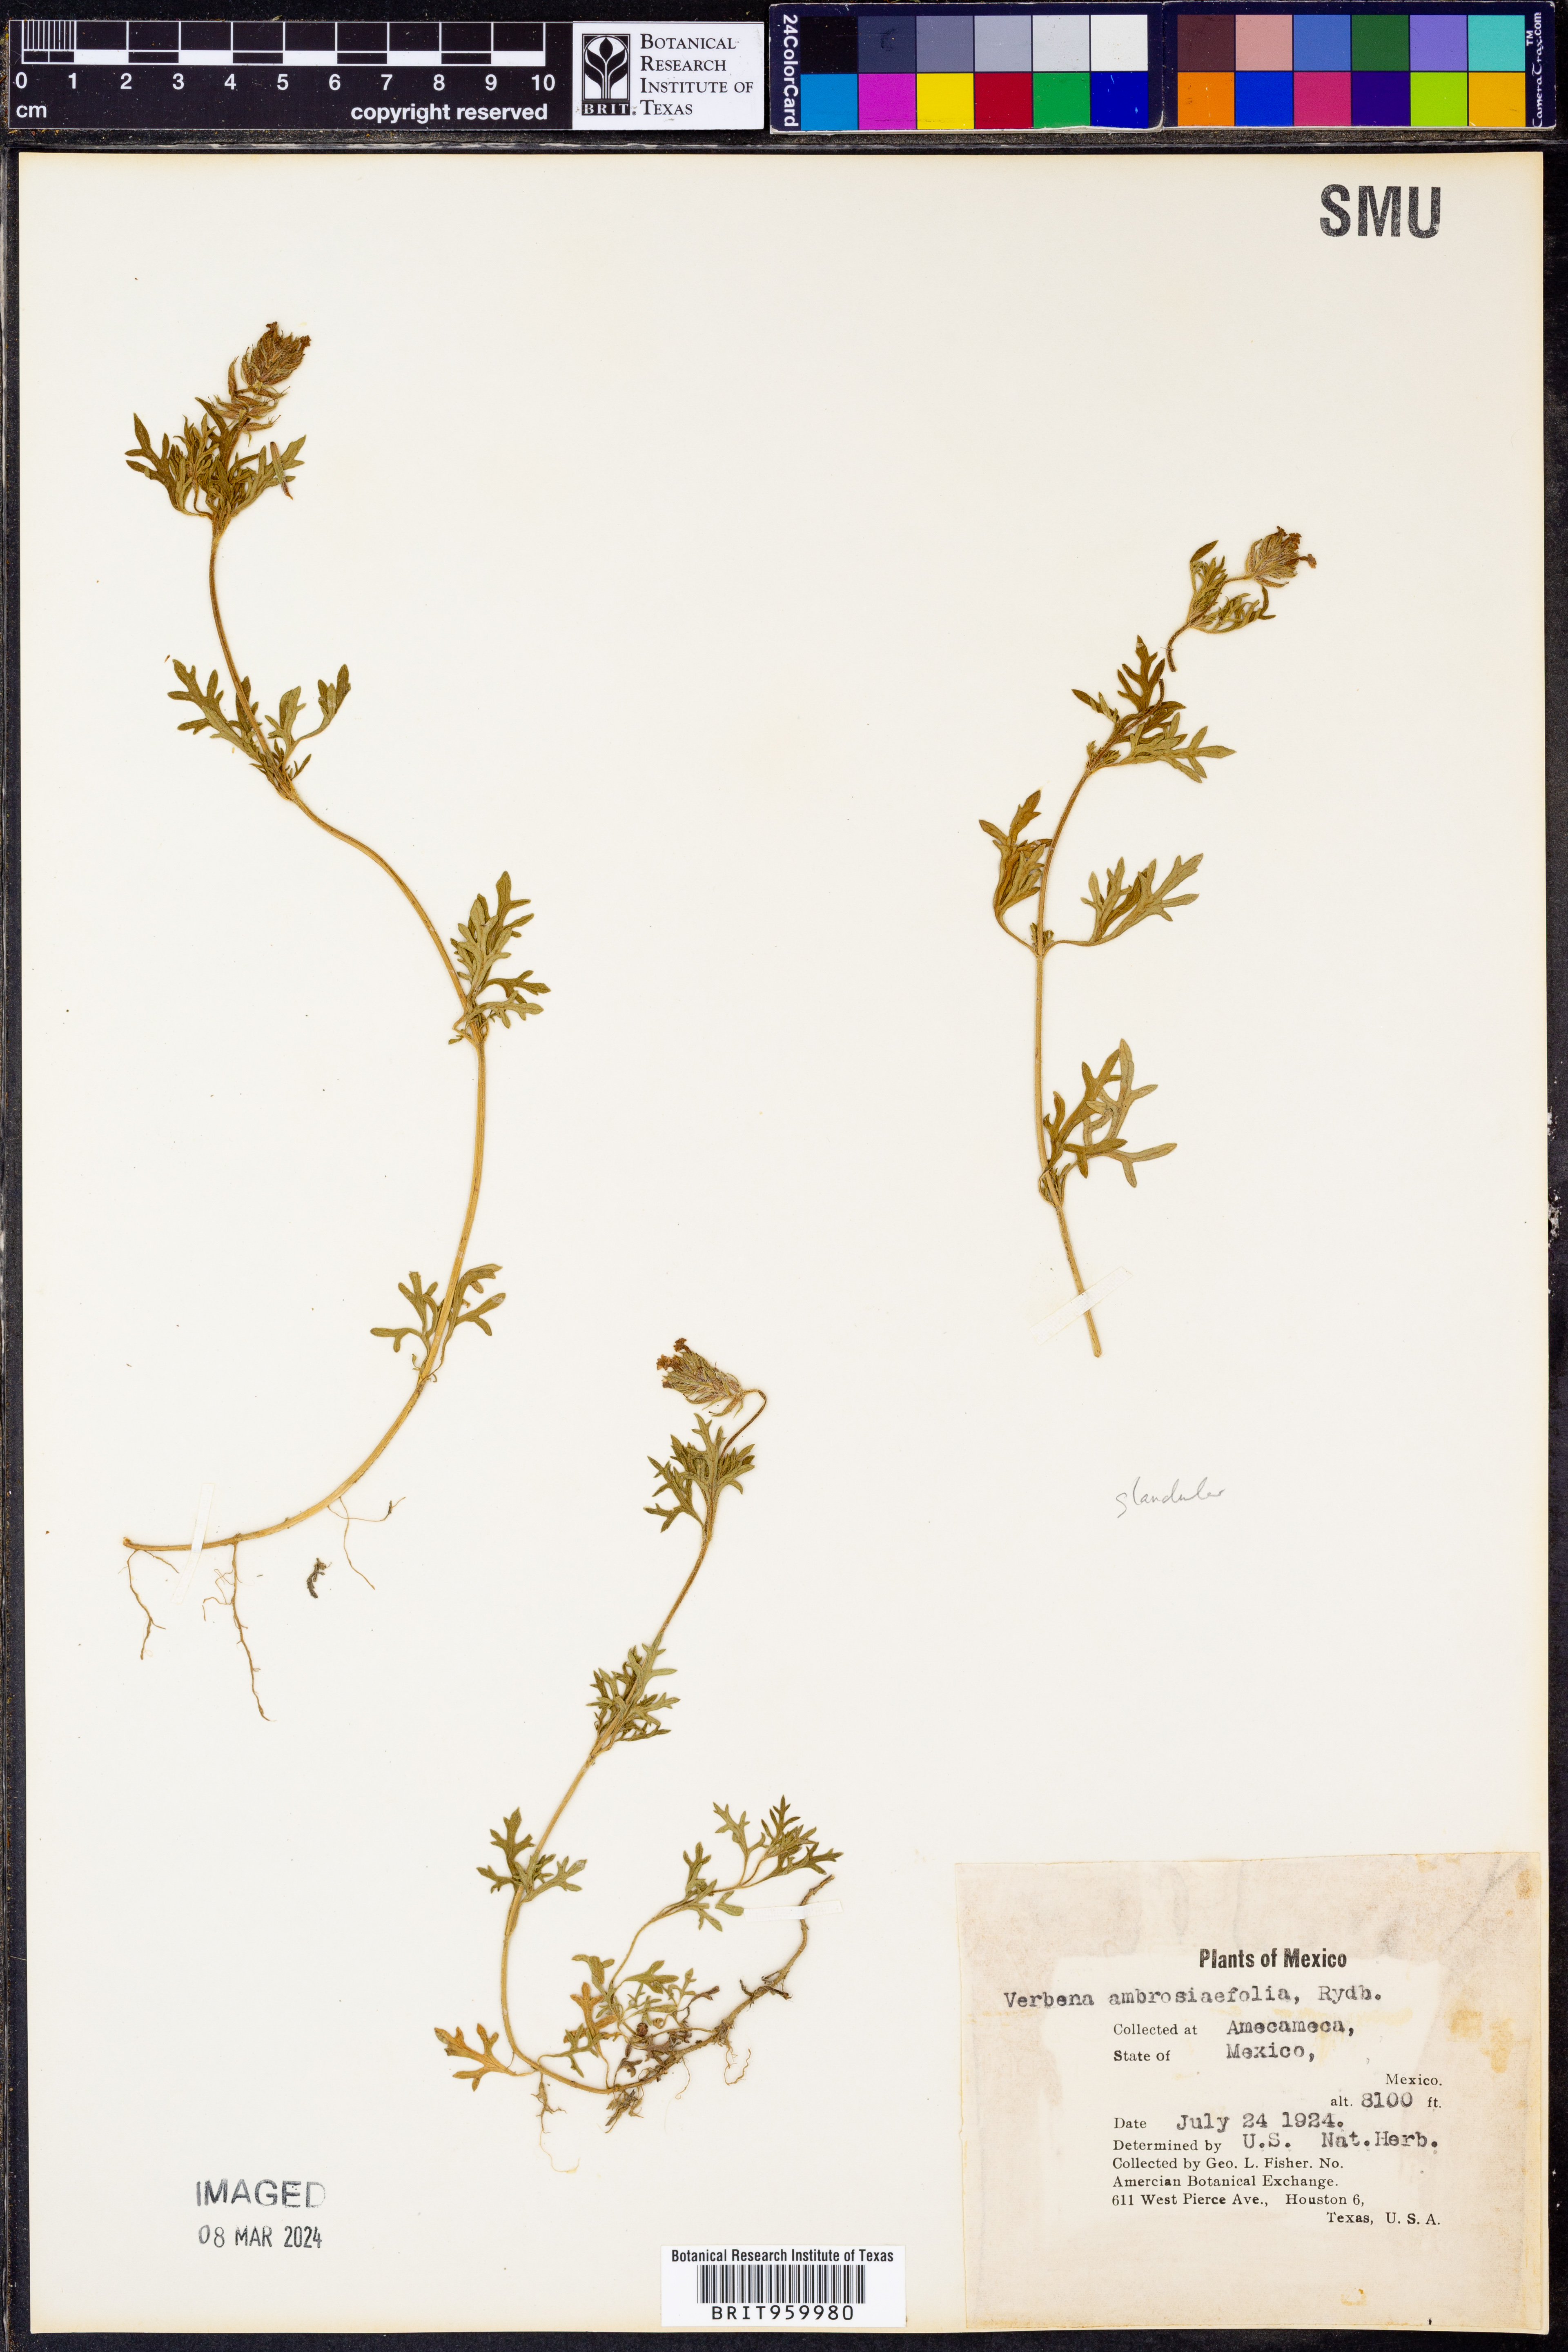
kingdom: Plantae
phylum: Tracheophyta
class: Magnoliopsida
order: Lamiales
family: Verbenaceae
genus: Verbena
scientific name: Verbena
